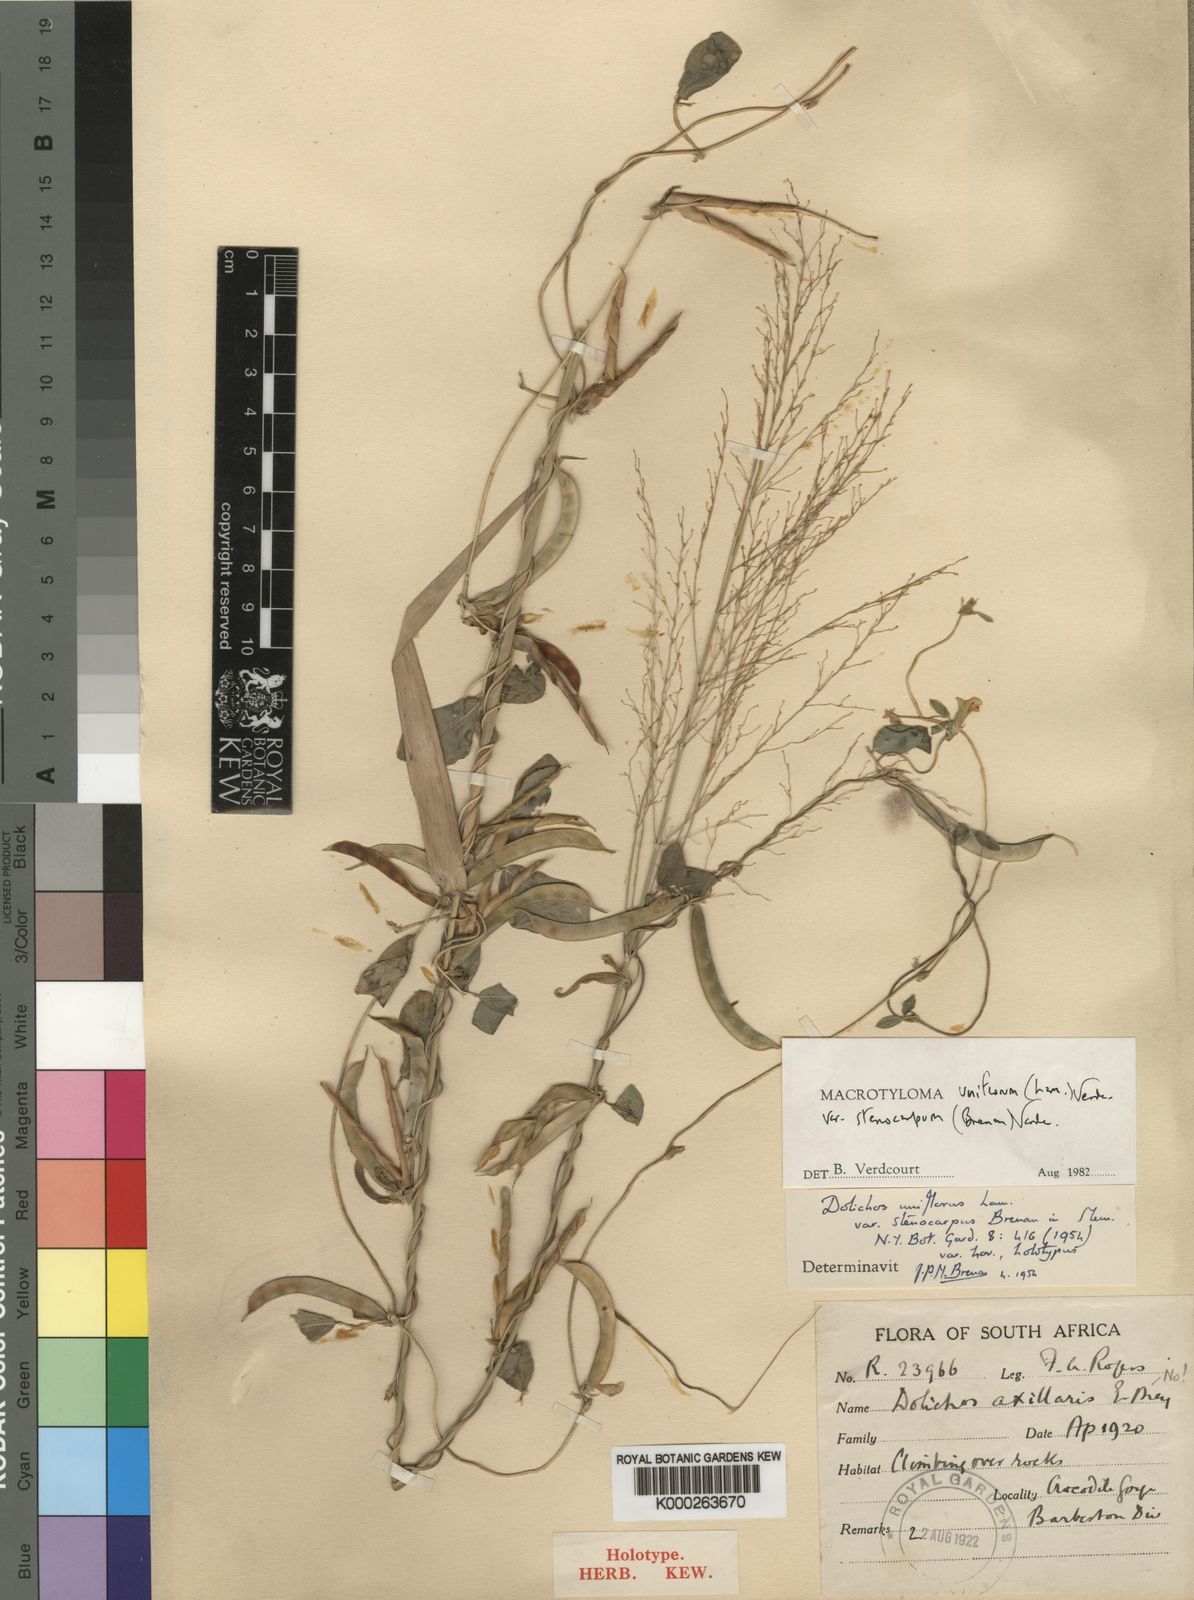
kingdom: Plantae
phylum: Tracheophyta
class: Magnoliopsida
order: Fabales
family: Fabaceae
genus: Macrotyloma
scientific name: Macrotyloma uniflorum
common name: Horse gram
